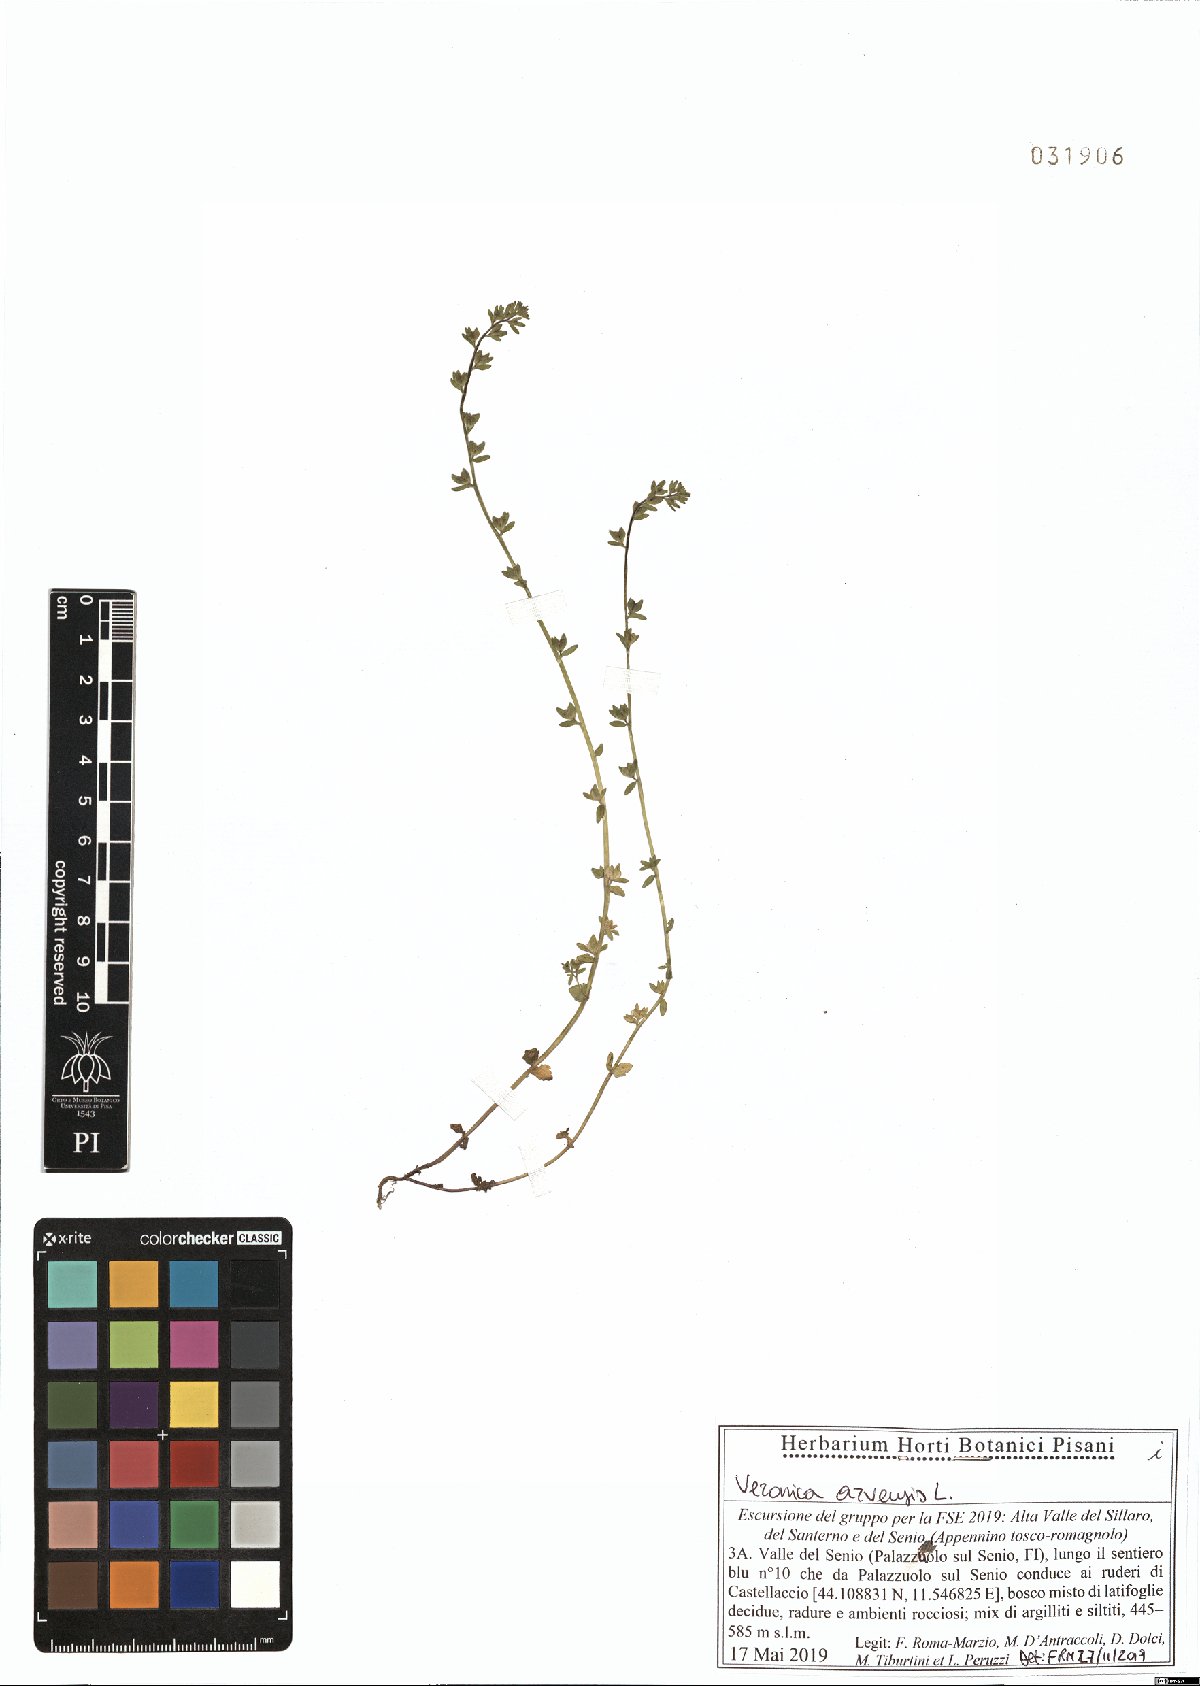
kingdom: Plantae
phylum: Tracheophyta
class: Magnoliopsida
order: Lamiales
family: Plantaginaceae
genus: Veronica
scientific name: Veronica arvensis
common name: Corn speedwell
